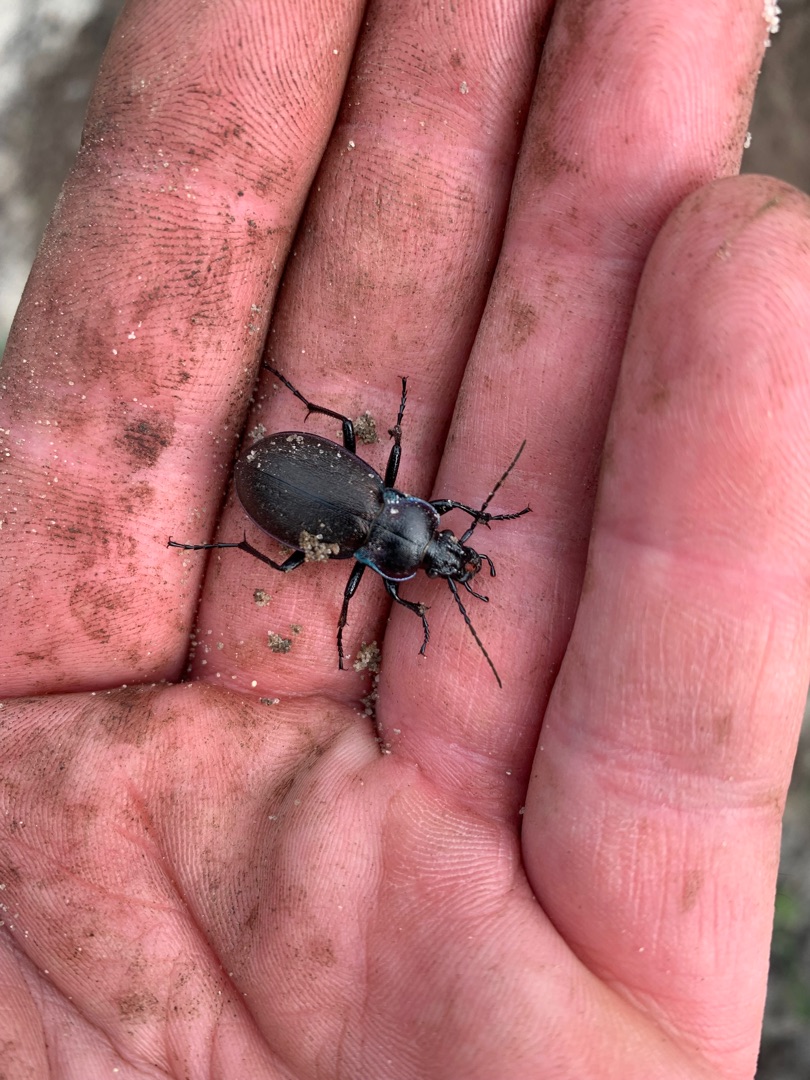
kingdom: Animalia
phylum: Arthropoda
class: Insecta
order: Coleoptera
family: Carabidae
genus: Carabus
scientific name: Carabus nemoralis
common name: Kratløber
